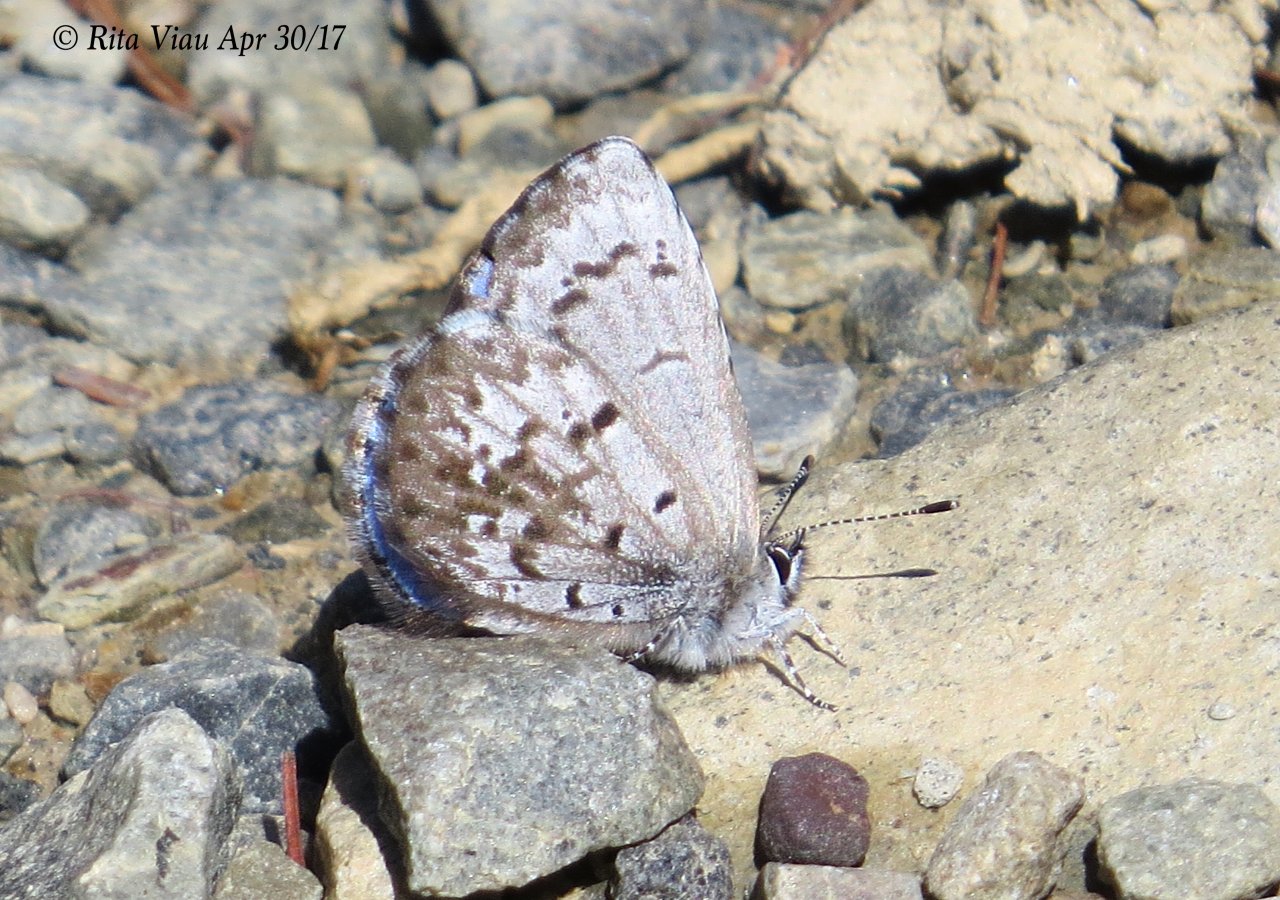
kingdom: Animalia
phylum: Arthropoda
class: Insecta
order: Lepidoptera
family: Lycaenidae
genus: Celastrina
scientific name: Celastrina lucia
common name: Northern Spring Azure
